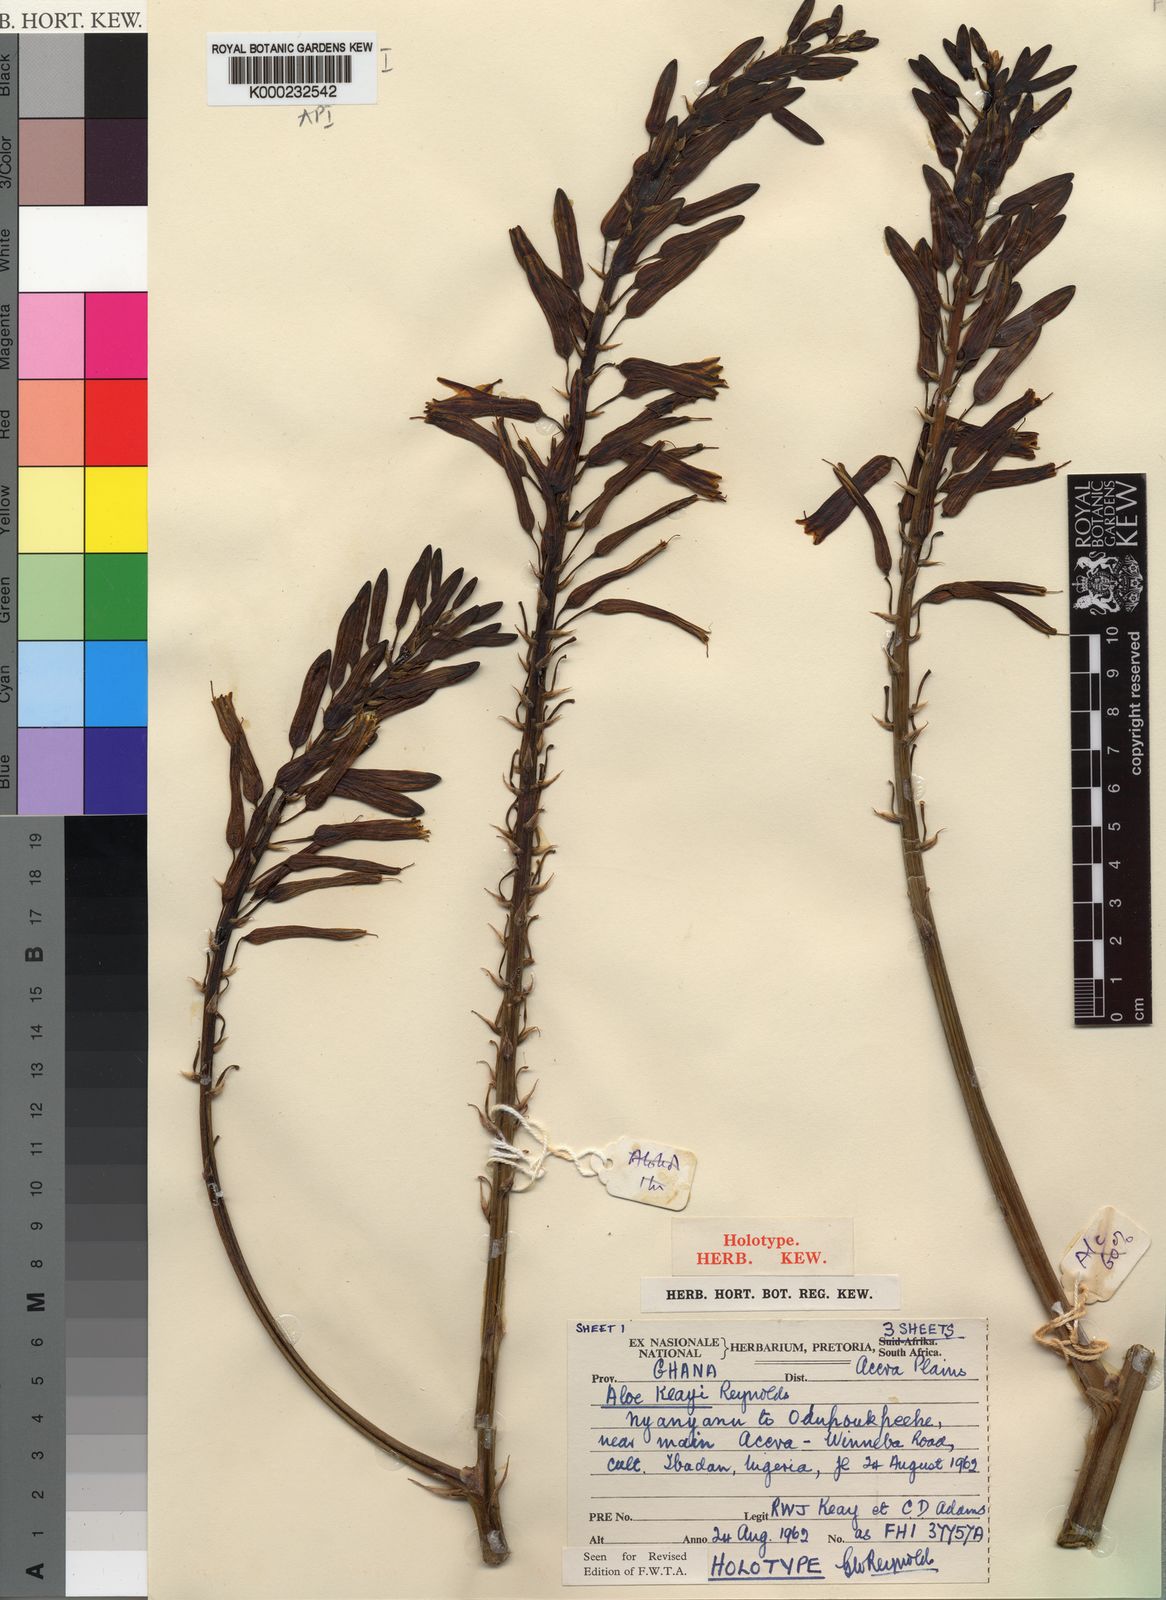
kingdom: Plantae
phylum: Tracheophyta
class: Liliopsida
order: Asparagales
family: Asphodelaceae
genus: Aloe
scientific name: Aloe keayi
